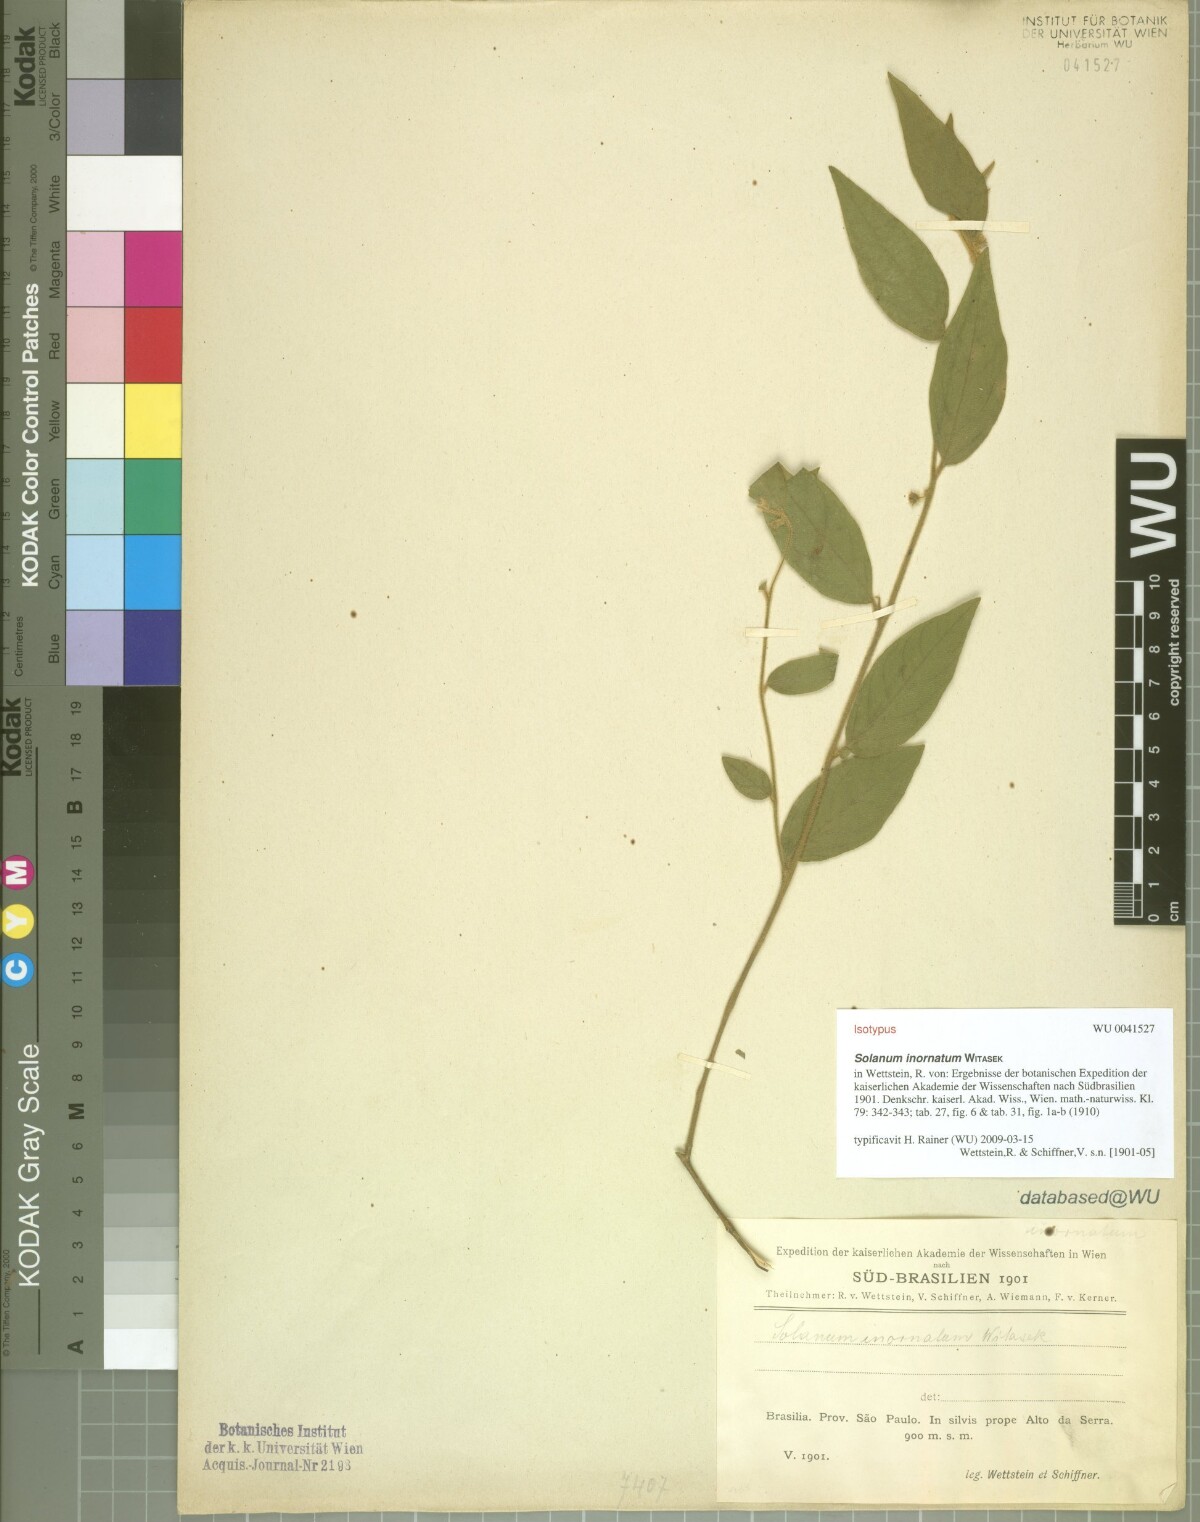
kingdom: Plantae
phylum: Tracheophyta
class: Magnoliopsida
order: Solanales
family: Solanaceae
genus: Solanum
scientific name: Solanum inornatum
